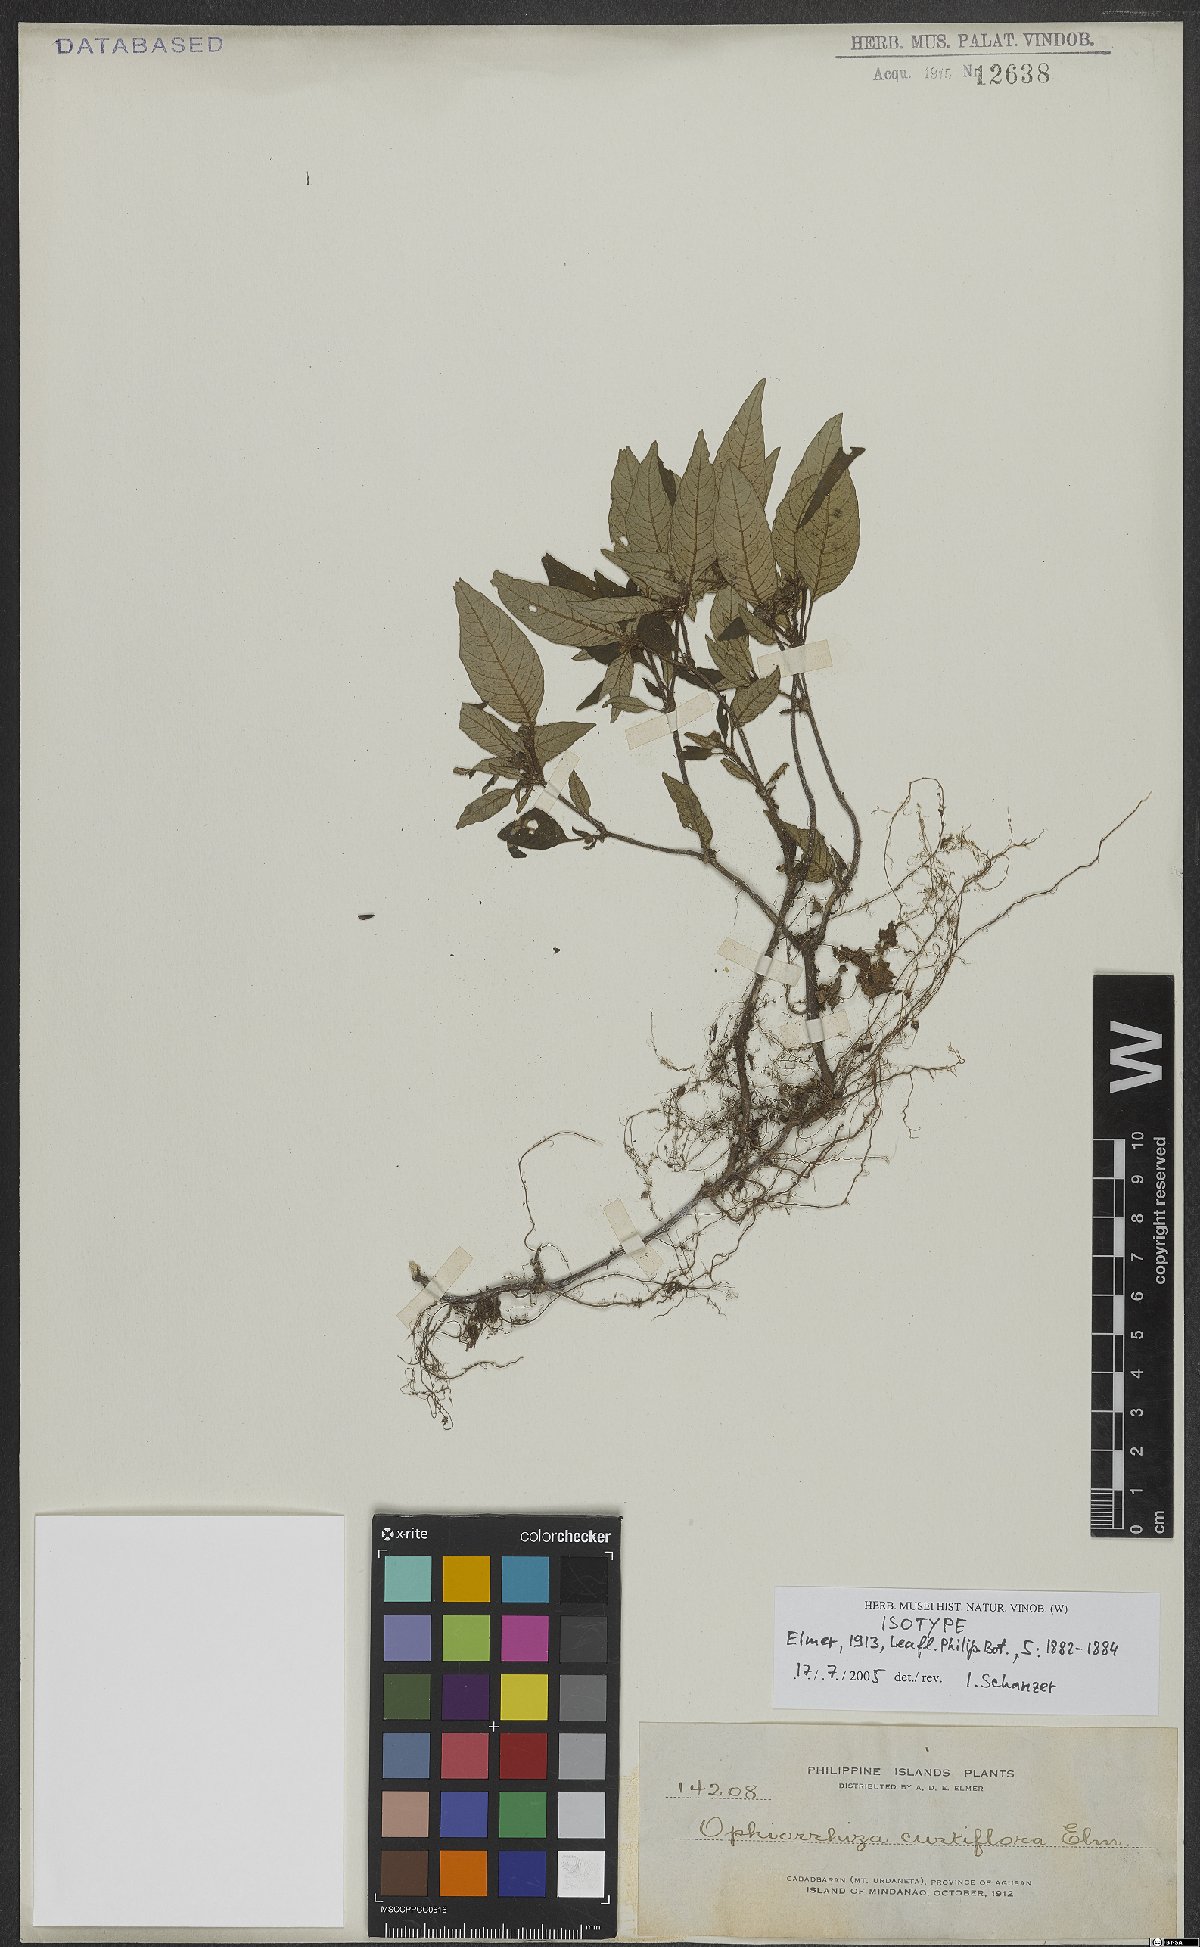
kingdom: Plantae
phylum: Tracheophyta
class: Magnoliopsida
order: Gentianales
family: Rubiaceae
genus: Ophiorrhiza
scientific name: Ophiorrhiza curtiflora
